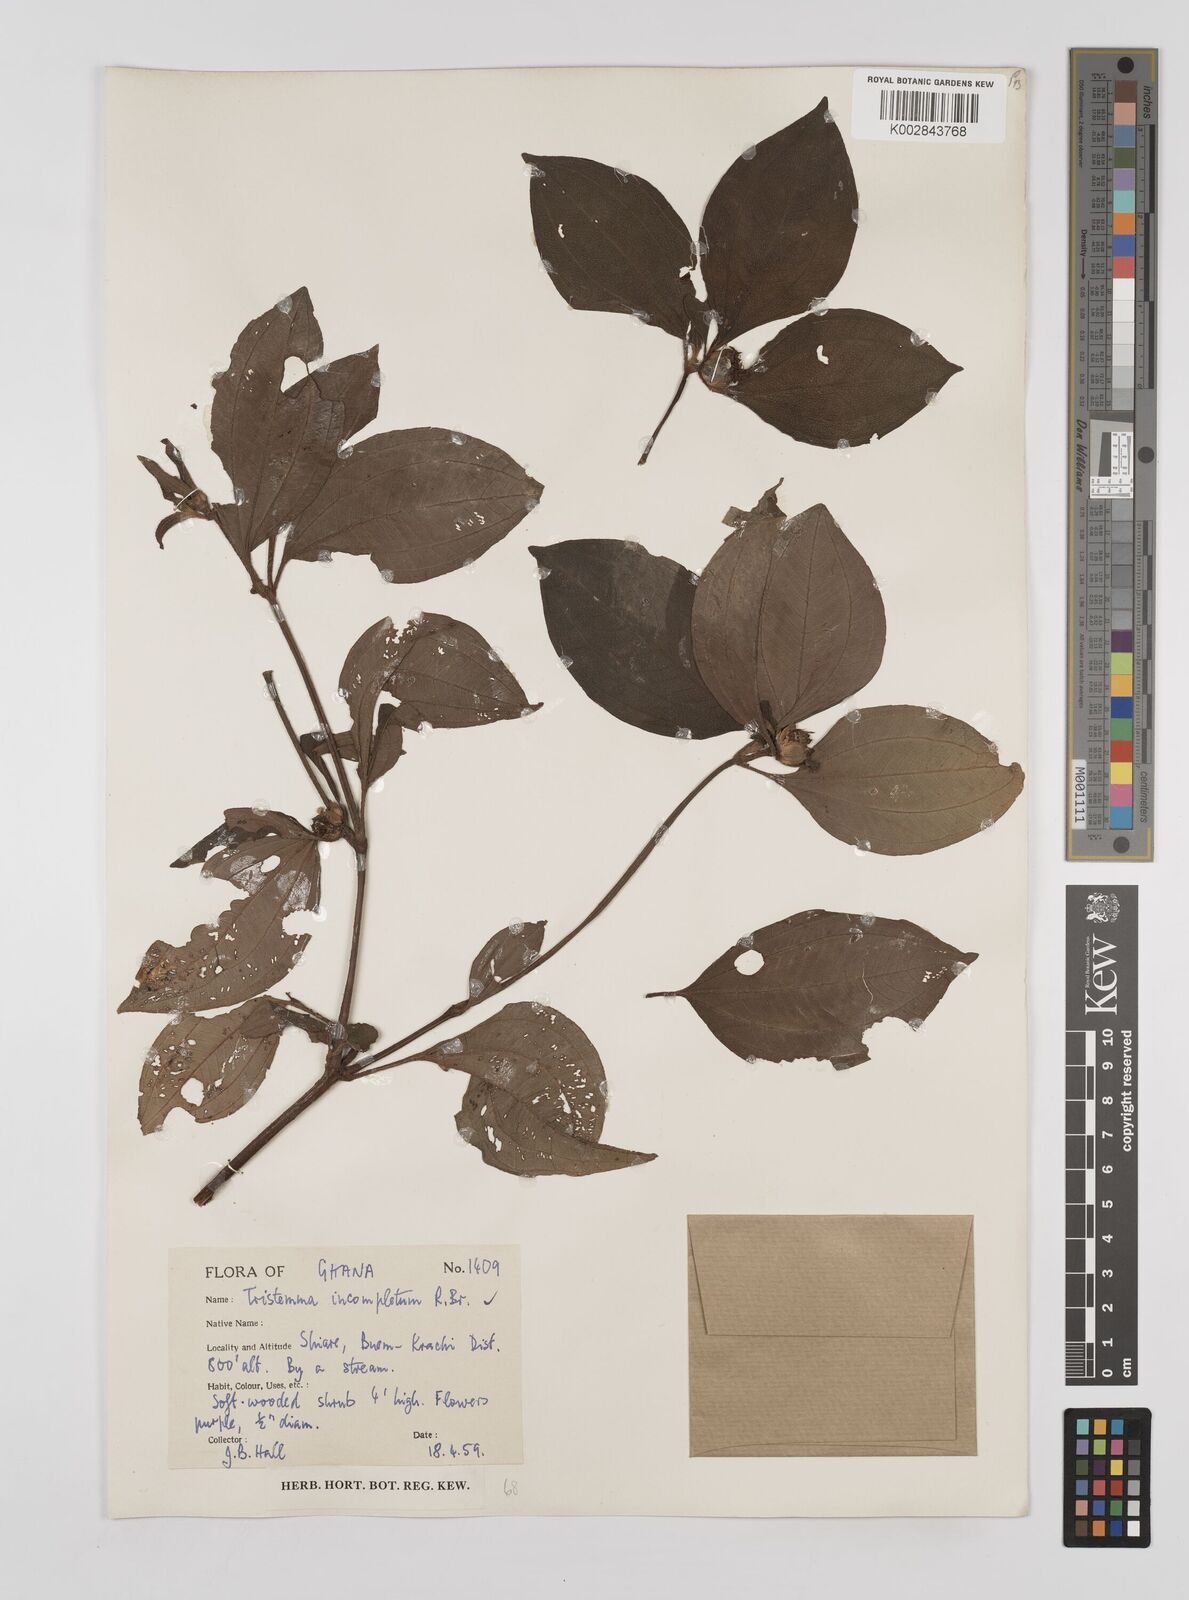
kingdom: Plantae
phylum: Tracheophyta
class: Magnoliopsida
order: Myrtales
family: Melastomataceae
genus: Tristemma
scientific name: Tristemma mauritianum
